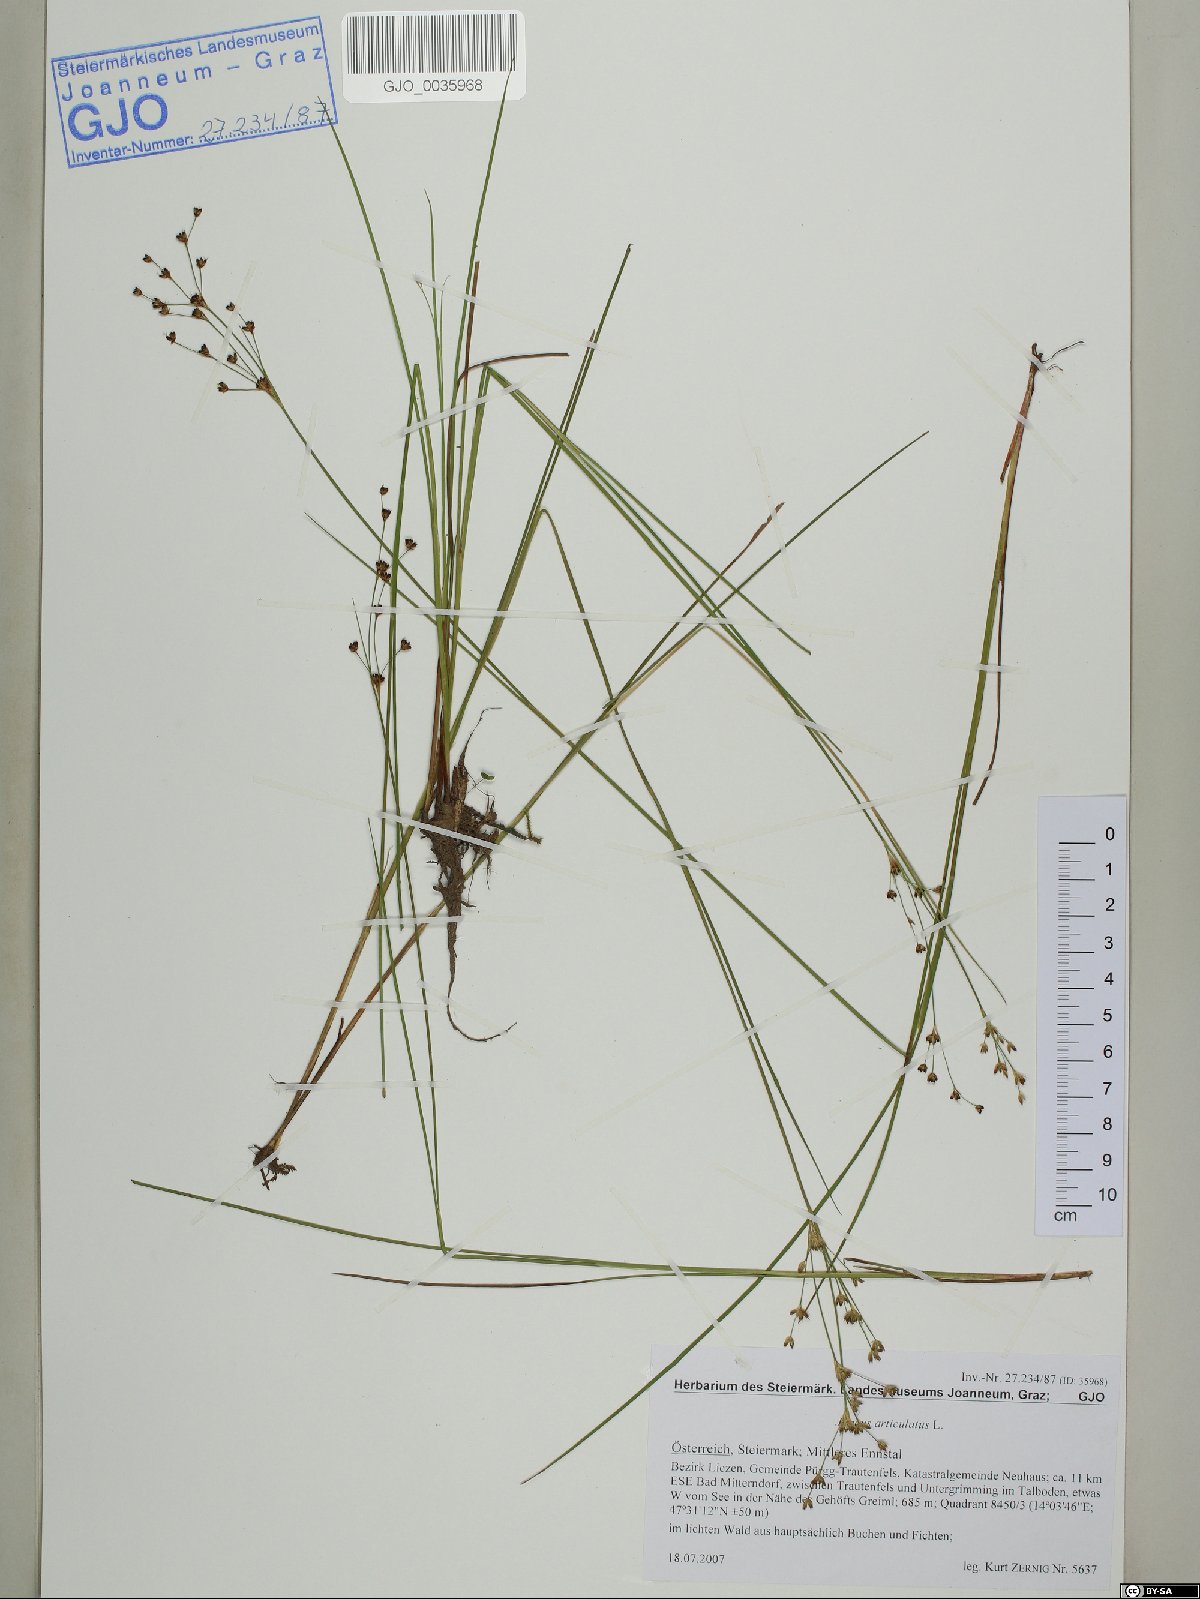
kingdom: Plantae
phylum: Tracheophyta
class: Liliopsida
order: Poales
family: Juncaceae
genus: Juncus
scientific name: Juncus articulatus
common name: Jointed rush
